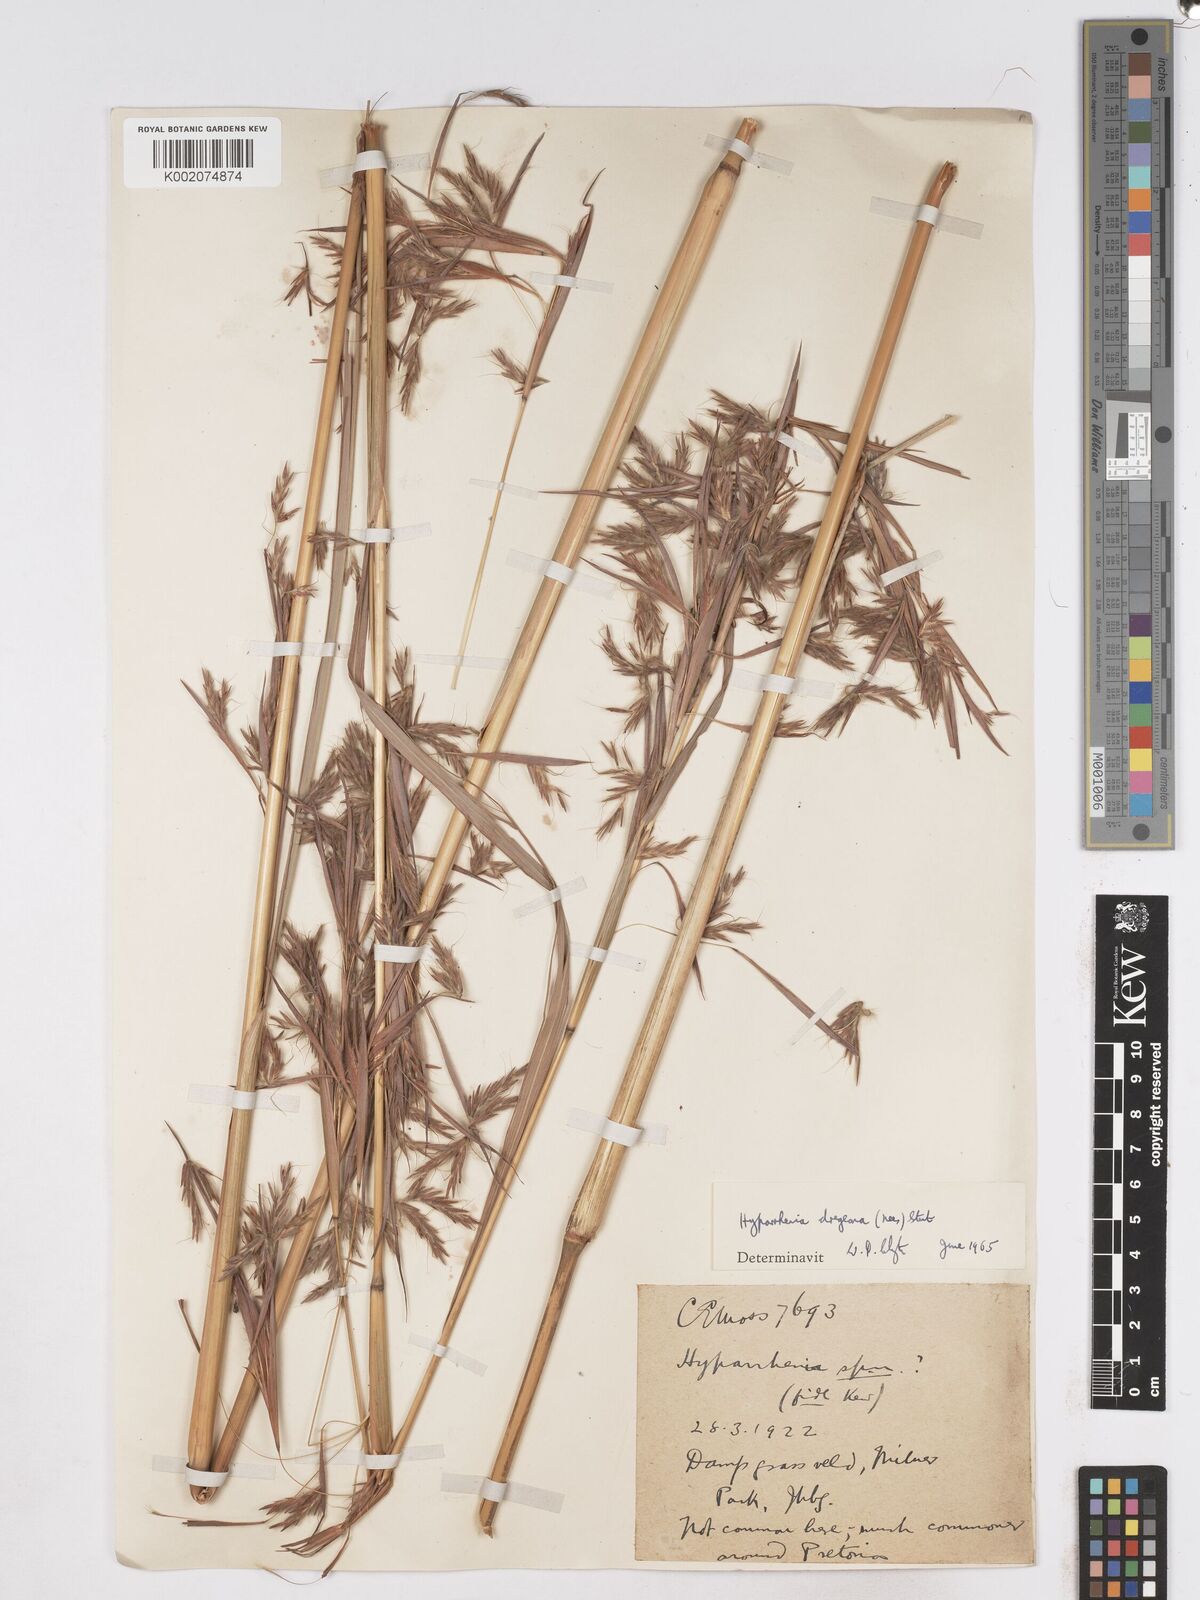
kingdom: Plantae
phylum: Tracheophyta
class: Liliopsida
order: Poales
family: Poaceae
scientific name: Poaceae
